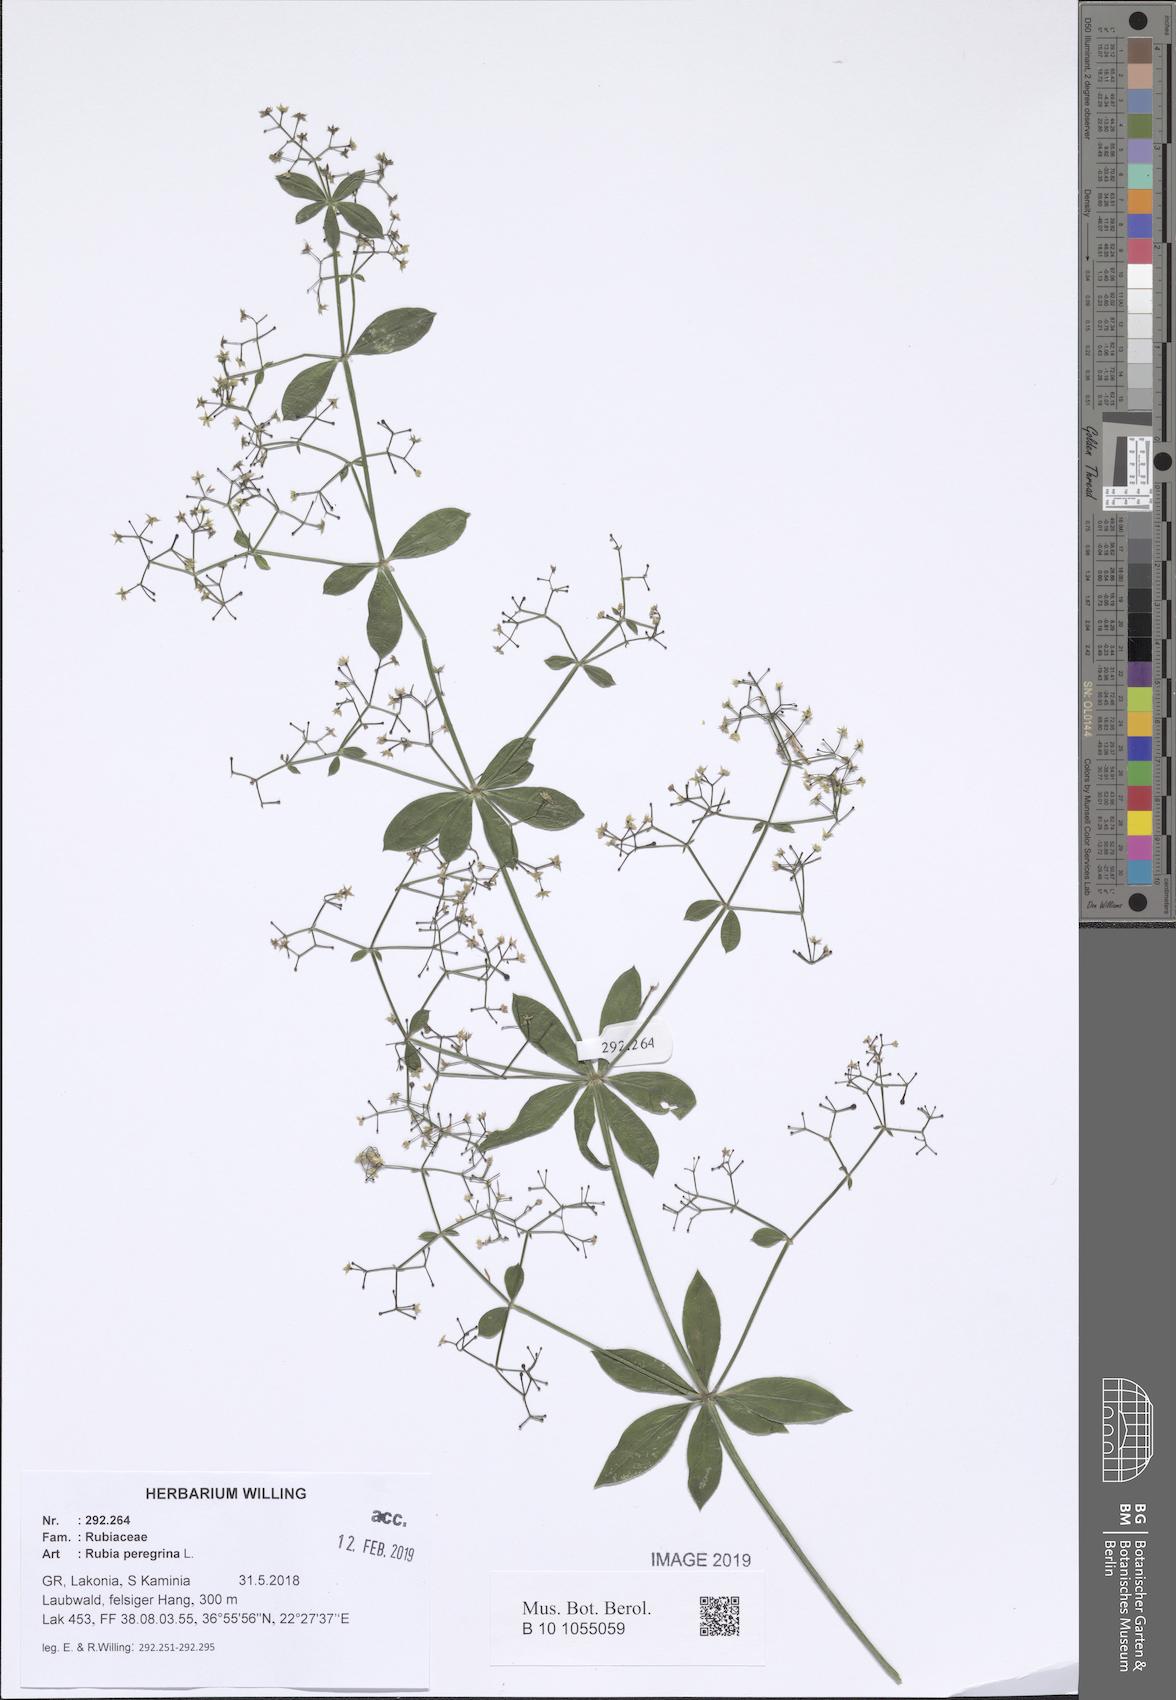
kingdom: Plantae
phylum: Tracheophyta
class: Magnoliopsida
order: Gentianales
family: Rubiaceae
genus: Rubia
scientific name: Rubia peregrina
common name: Wild madder
